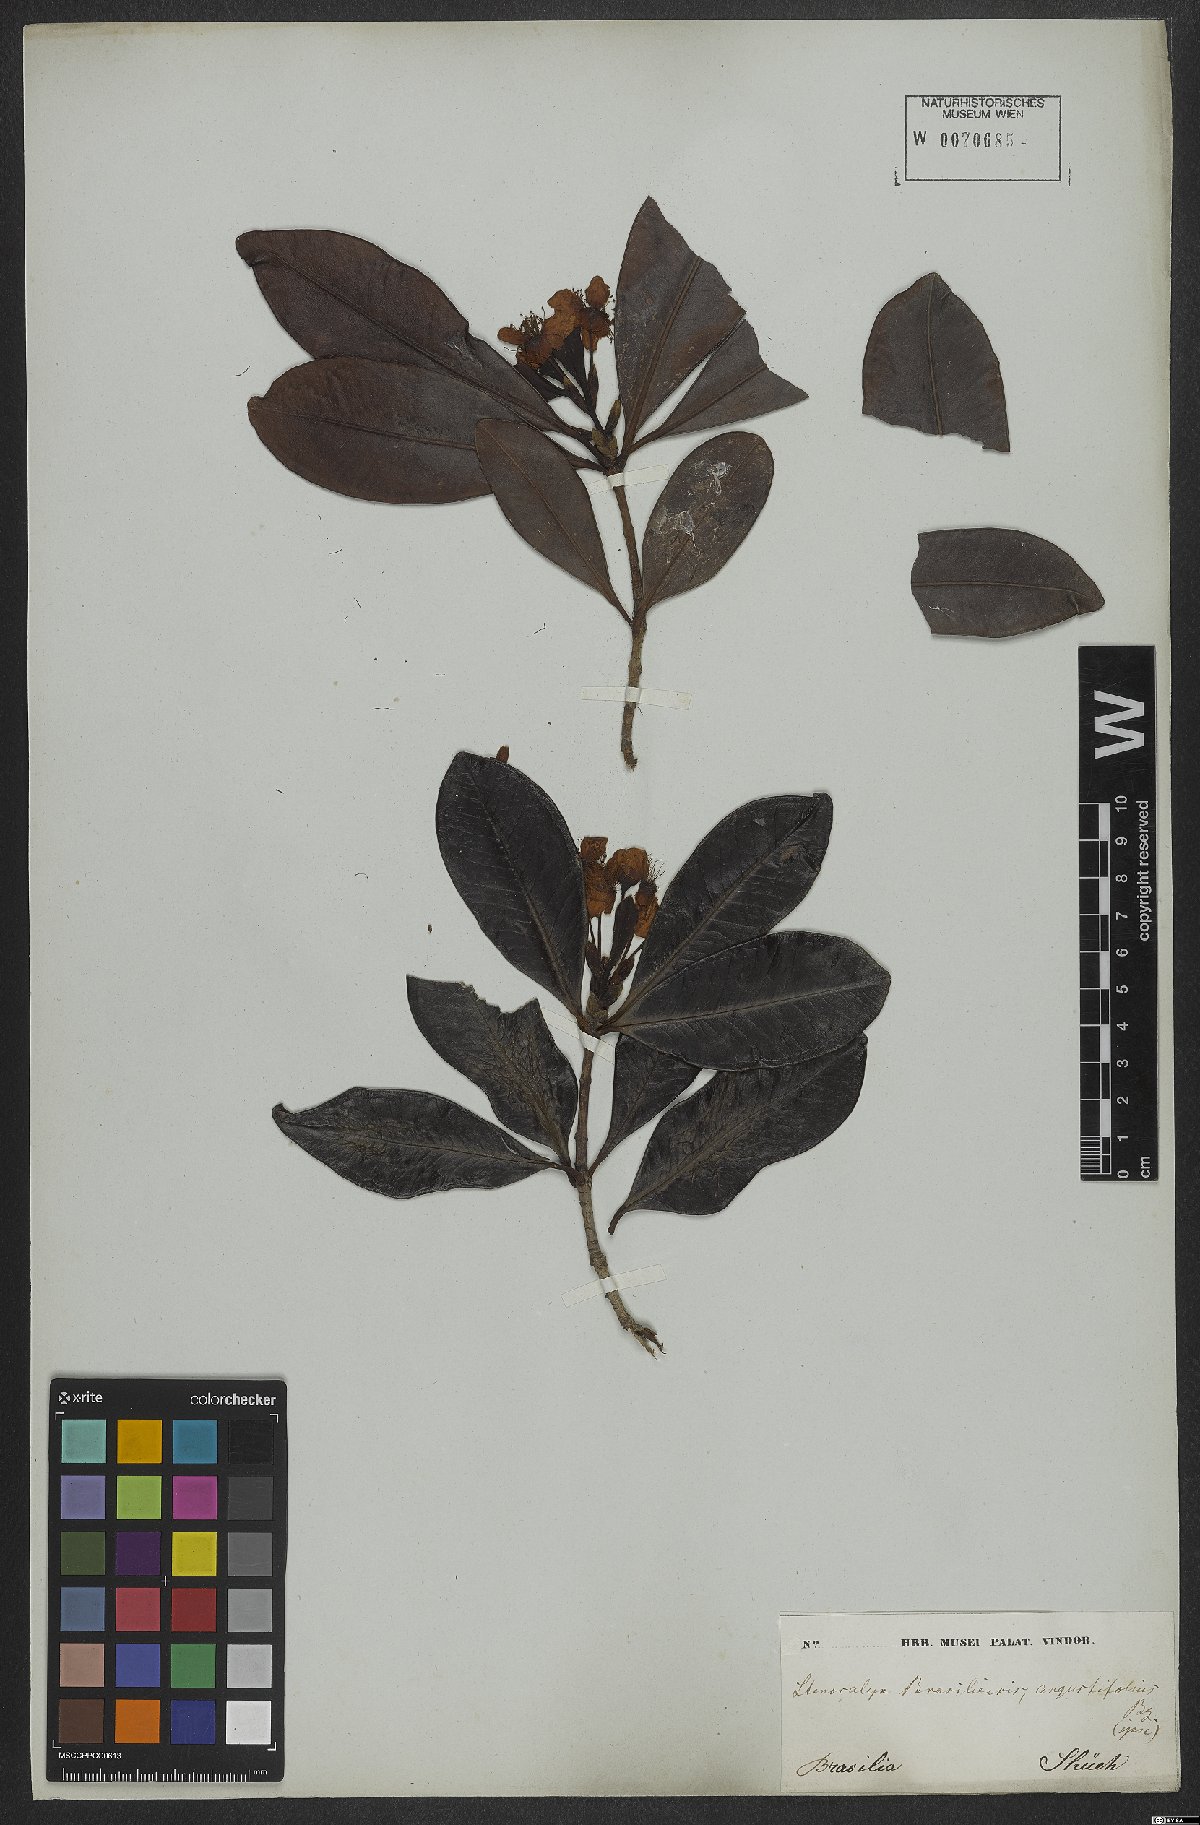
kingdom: Plantae
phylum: Tracheophyta
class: Magnoliopsida
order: Myrtales
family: Myrtaceae
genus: Eugenia
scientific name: Eugenia brasiliensis
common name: Grumichama
